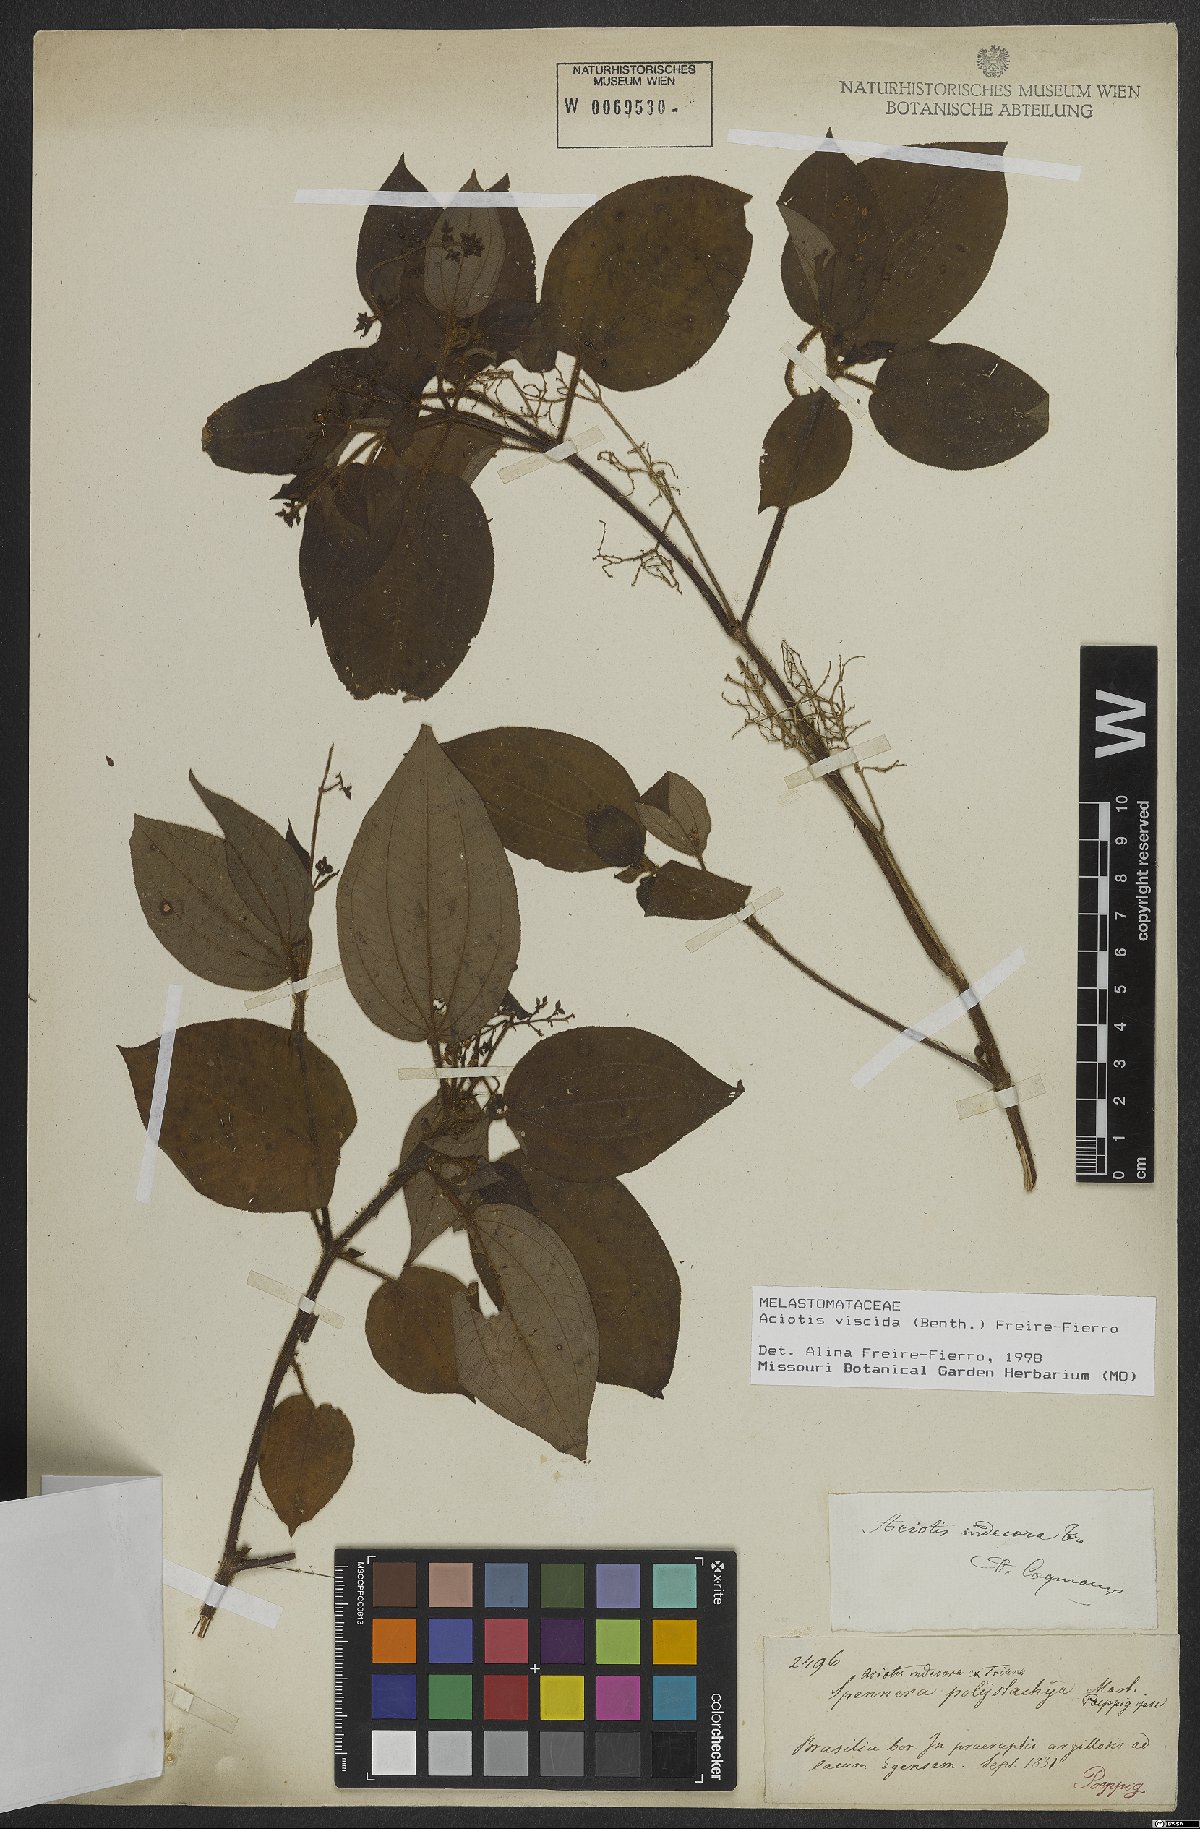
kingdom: Plantae
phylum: Tracheophyta
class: Magnoliopsida
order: Myrtales
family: Melastomataceae
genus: Aciotis
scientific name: Aciotis viscida
